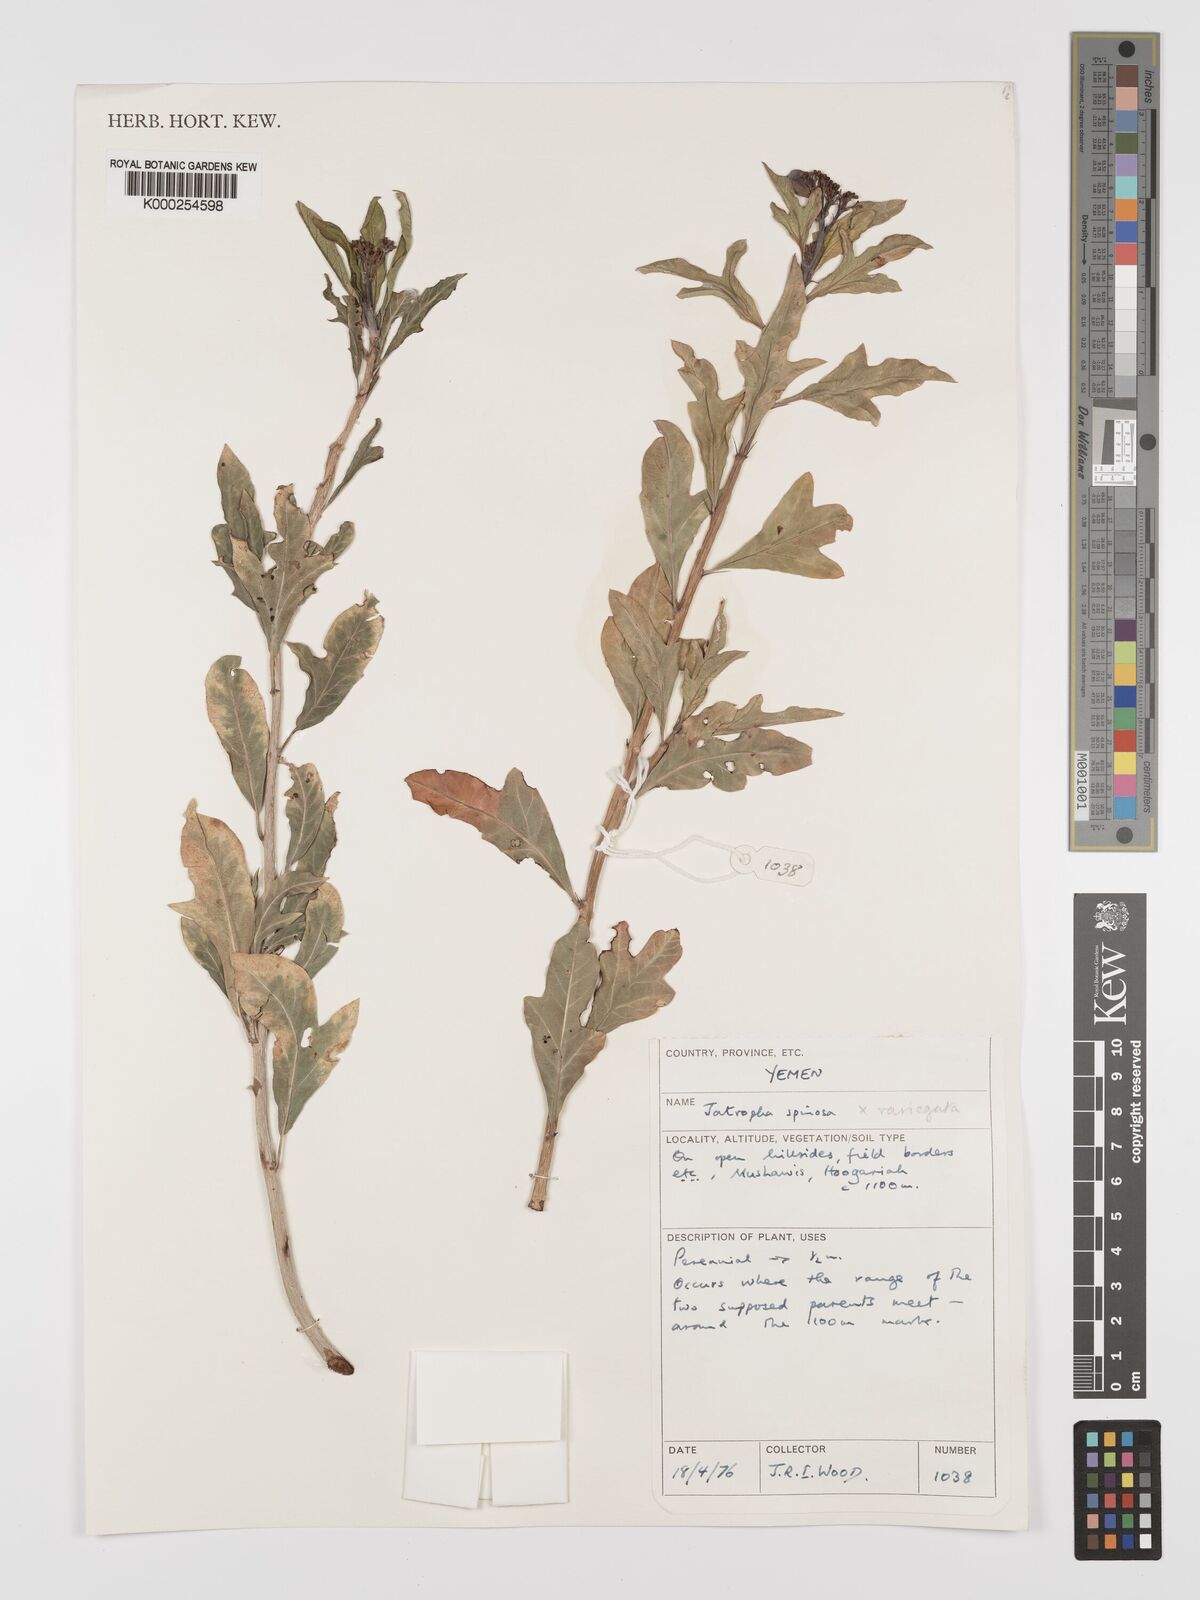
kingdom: Plantae
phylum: Tracheophyta
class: Magnoliopsida
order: Malpighiales
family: Euphorbiaceae
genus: Jatropha
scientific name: Jatropha spinosa
